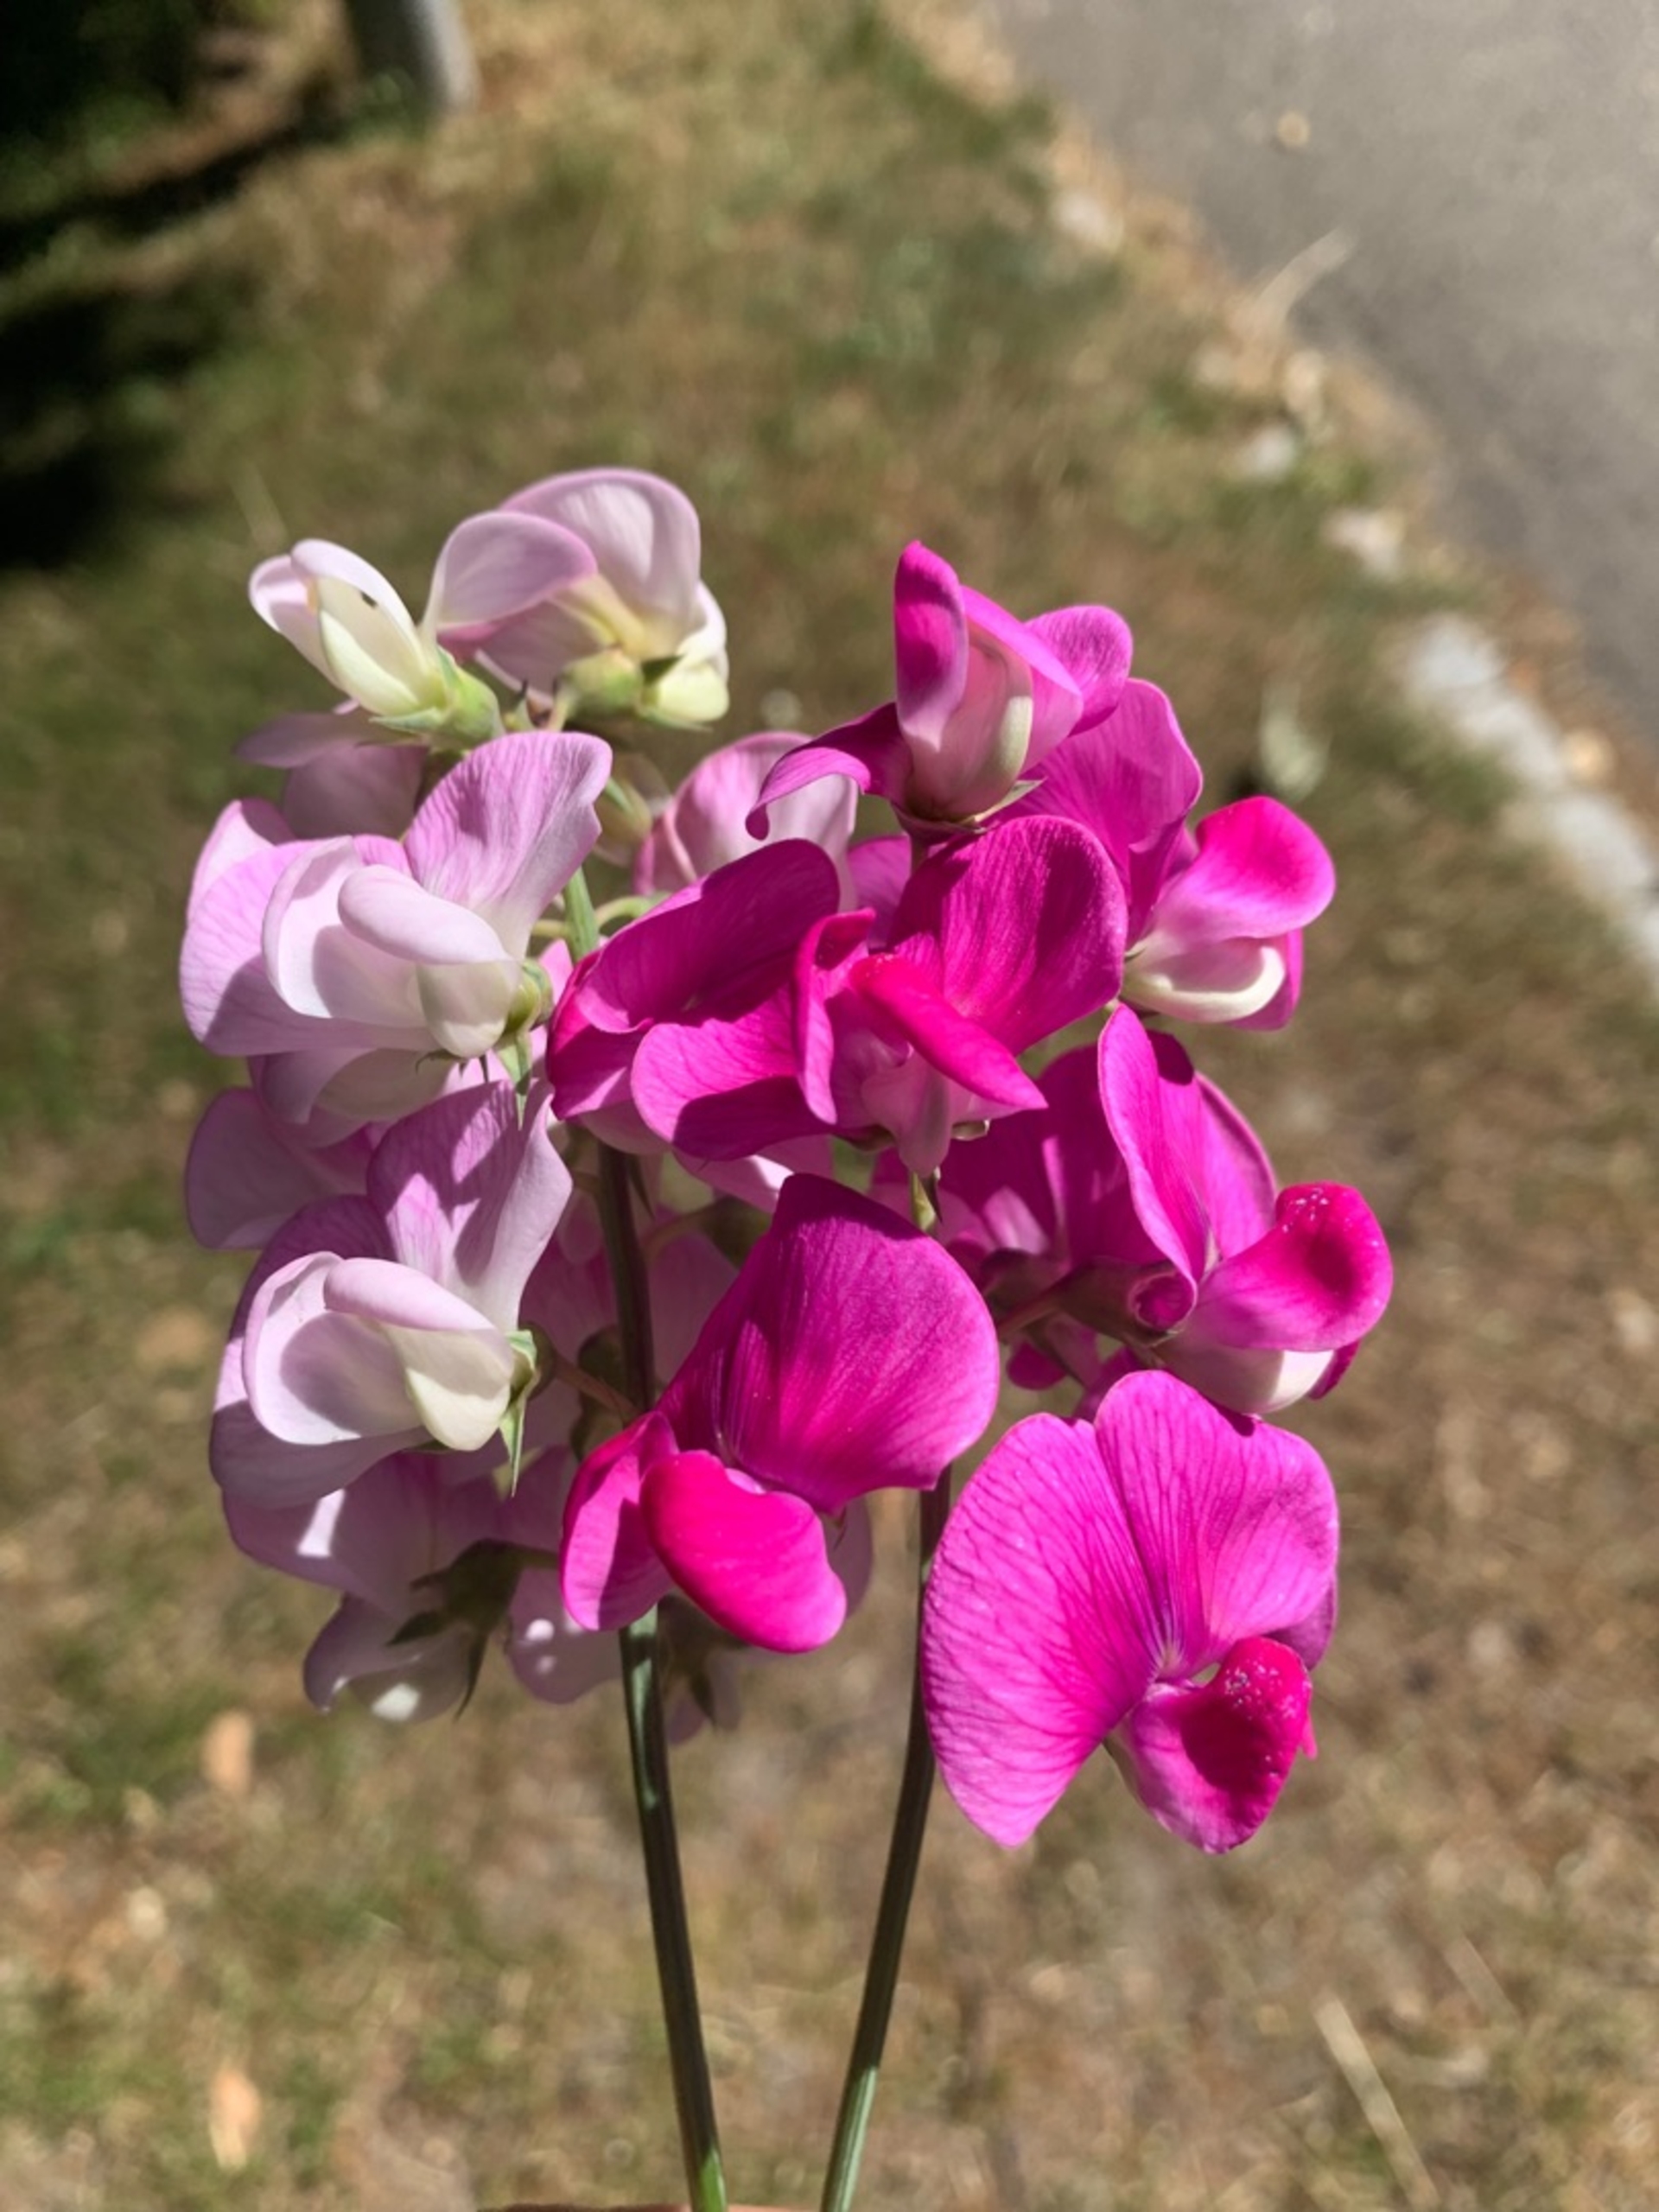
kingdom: Plantae
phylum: Tracheophyta
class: Magnoliopsida
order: Fabales
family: Fabaceae
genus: Lathyrus
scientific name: Lathyrus latifolius
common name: Flerårig ærteblomst
